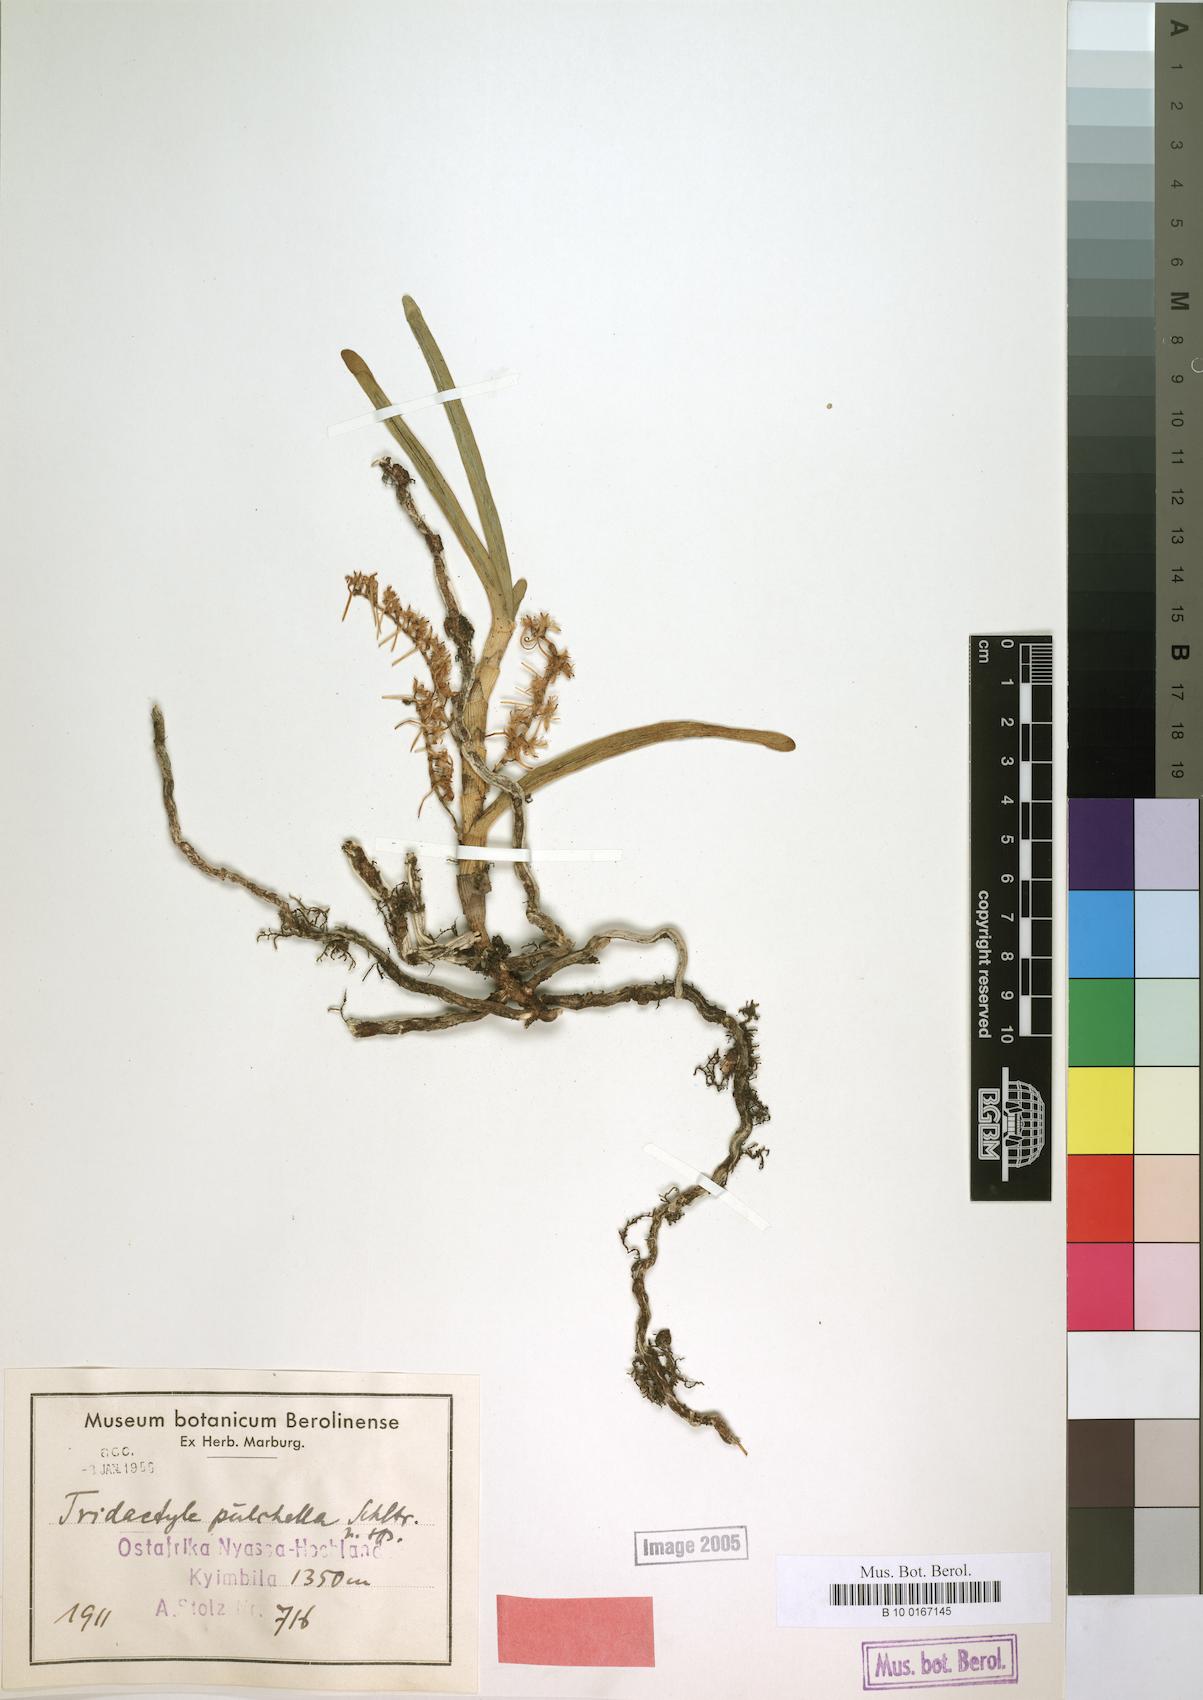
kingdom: Plantae
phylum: Tracheophyta
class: Liliopsida
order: Asparagales
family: Orchidaceae
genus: Tridactyle
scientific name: Tridactyle bicaudata
